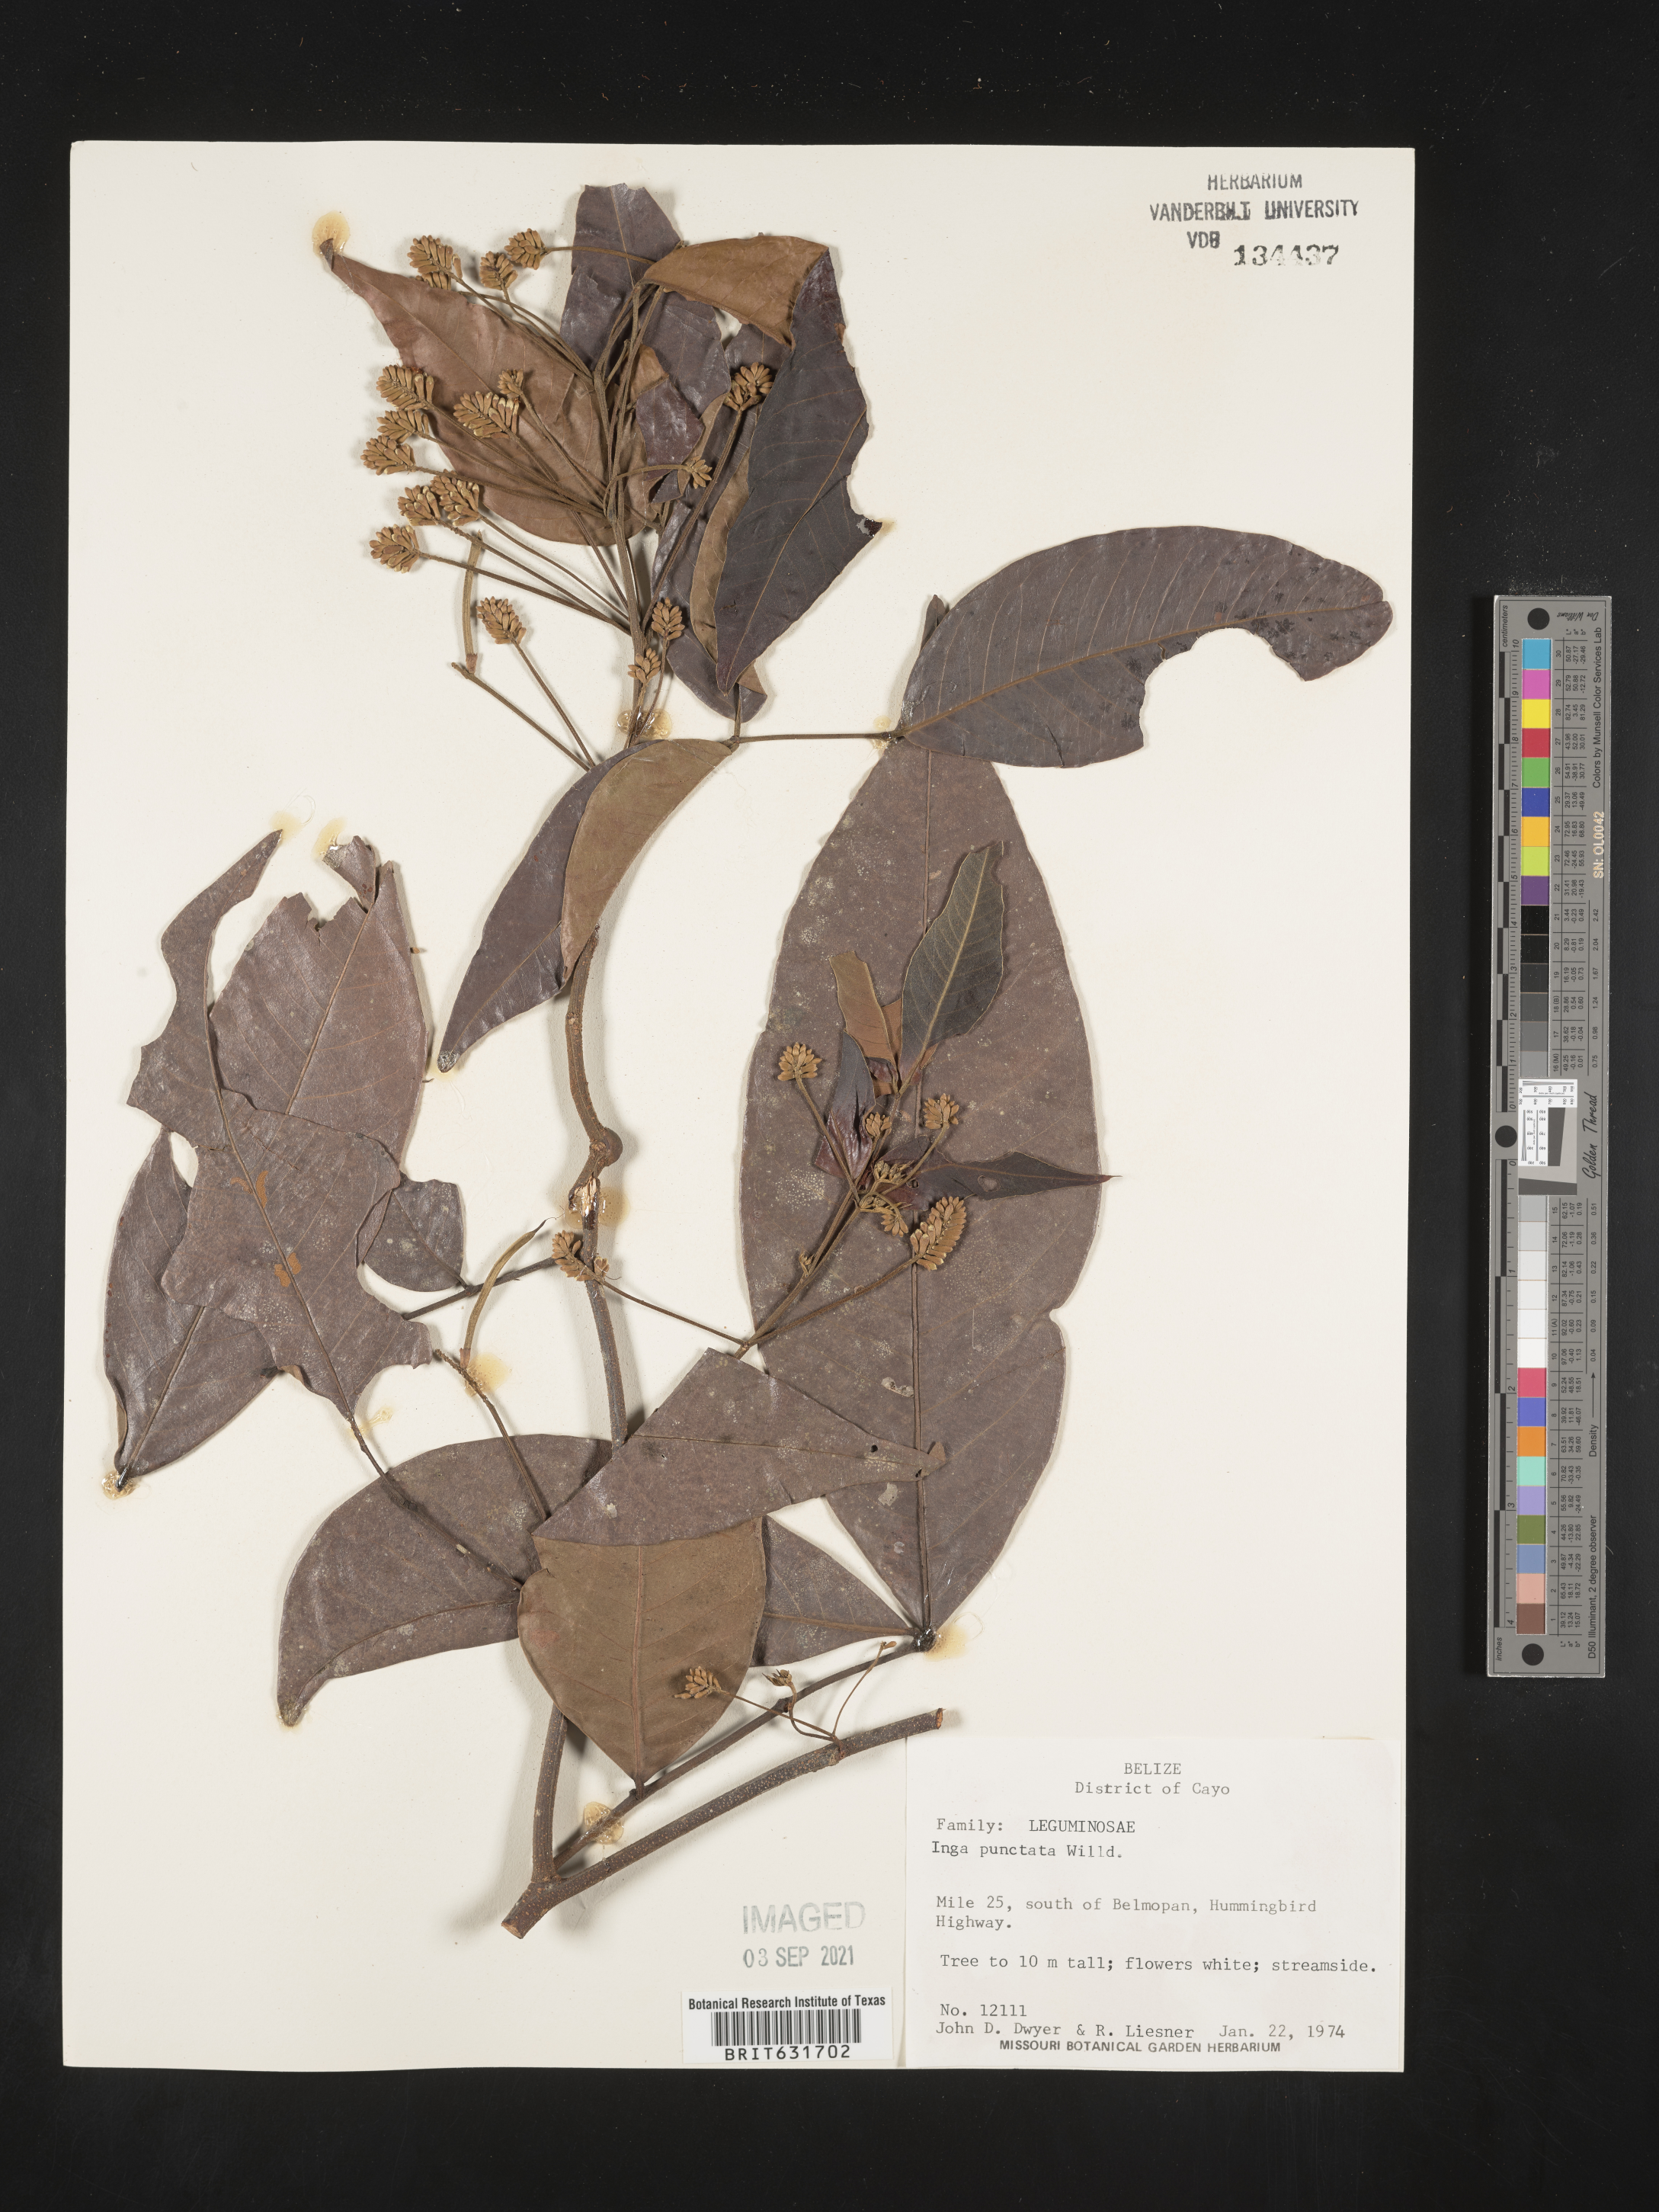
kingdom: Plantae
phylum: Tracheophyta
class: Magnoliopsida
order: Fabales
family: Fabaceae
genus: Inga
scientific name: Inga
